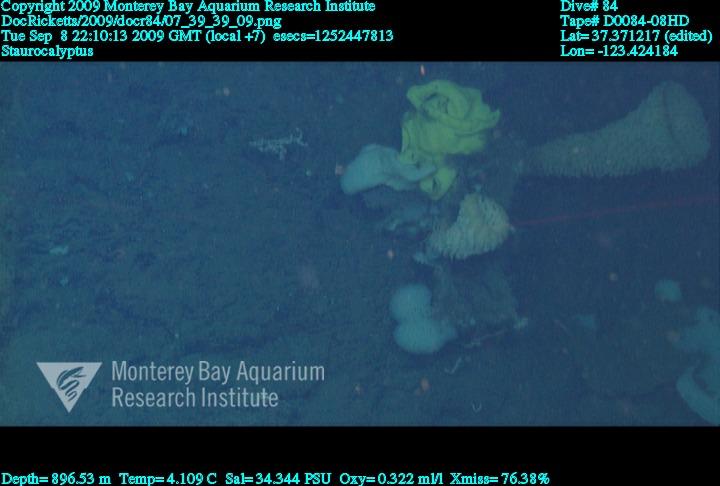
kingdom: Animalia
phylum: Porifera
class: Hexactinellida
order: Lyssacinosida
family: Rossellidae
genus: Staurocalyptus
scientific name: Staurocalyptus
